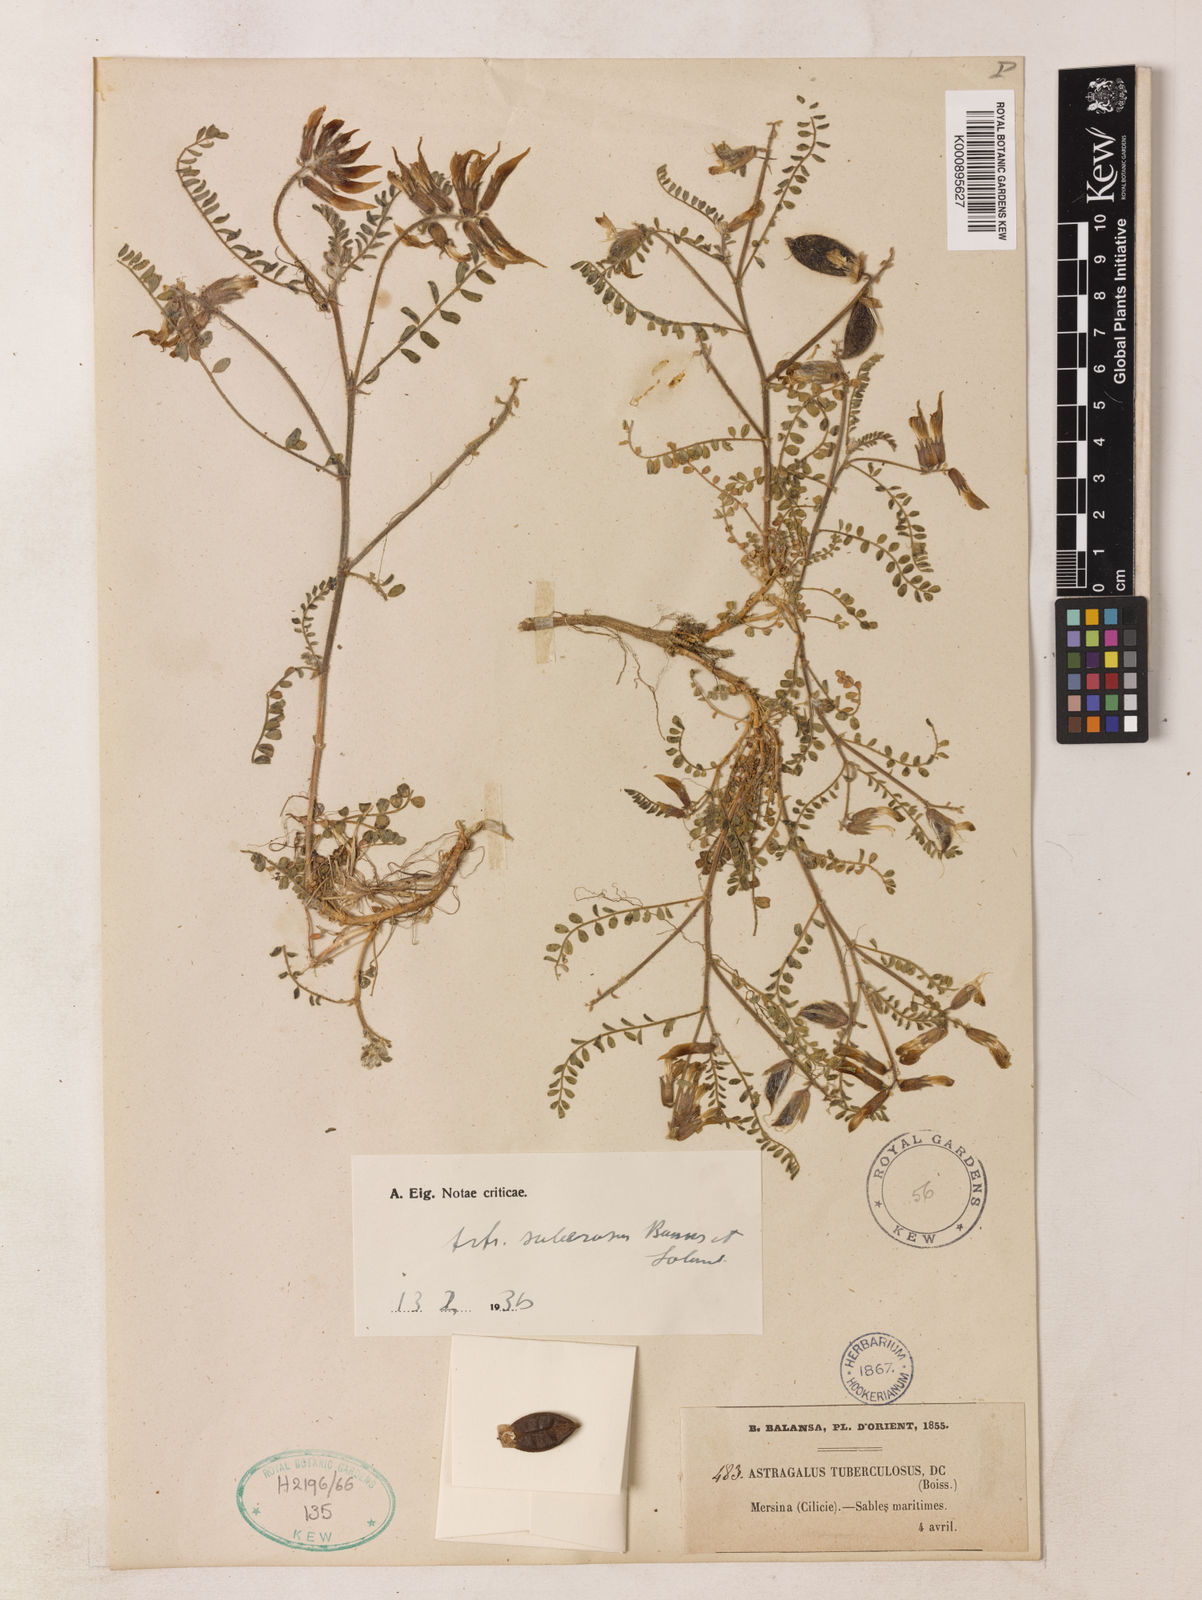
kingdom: Plantae
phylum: Tracheophyta
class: Magnoliopsida
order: Fabales
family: Fabaceae
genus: Astragalus
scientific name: Astragalus suberosus
